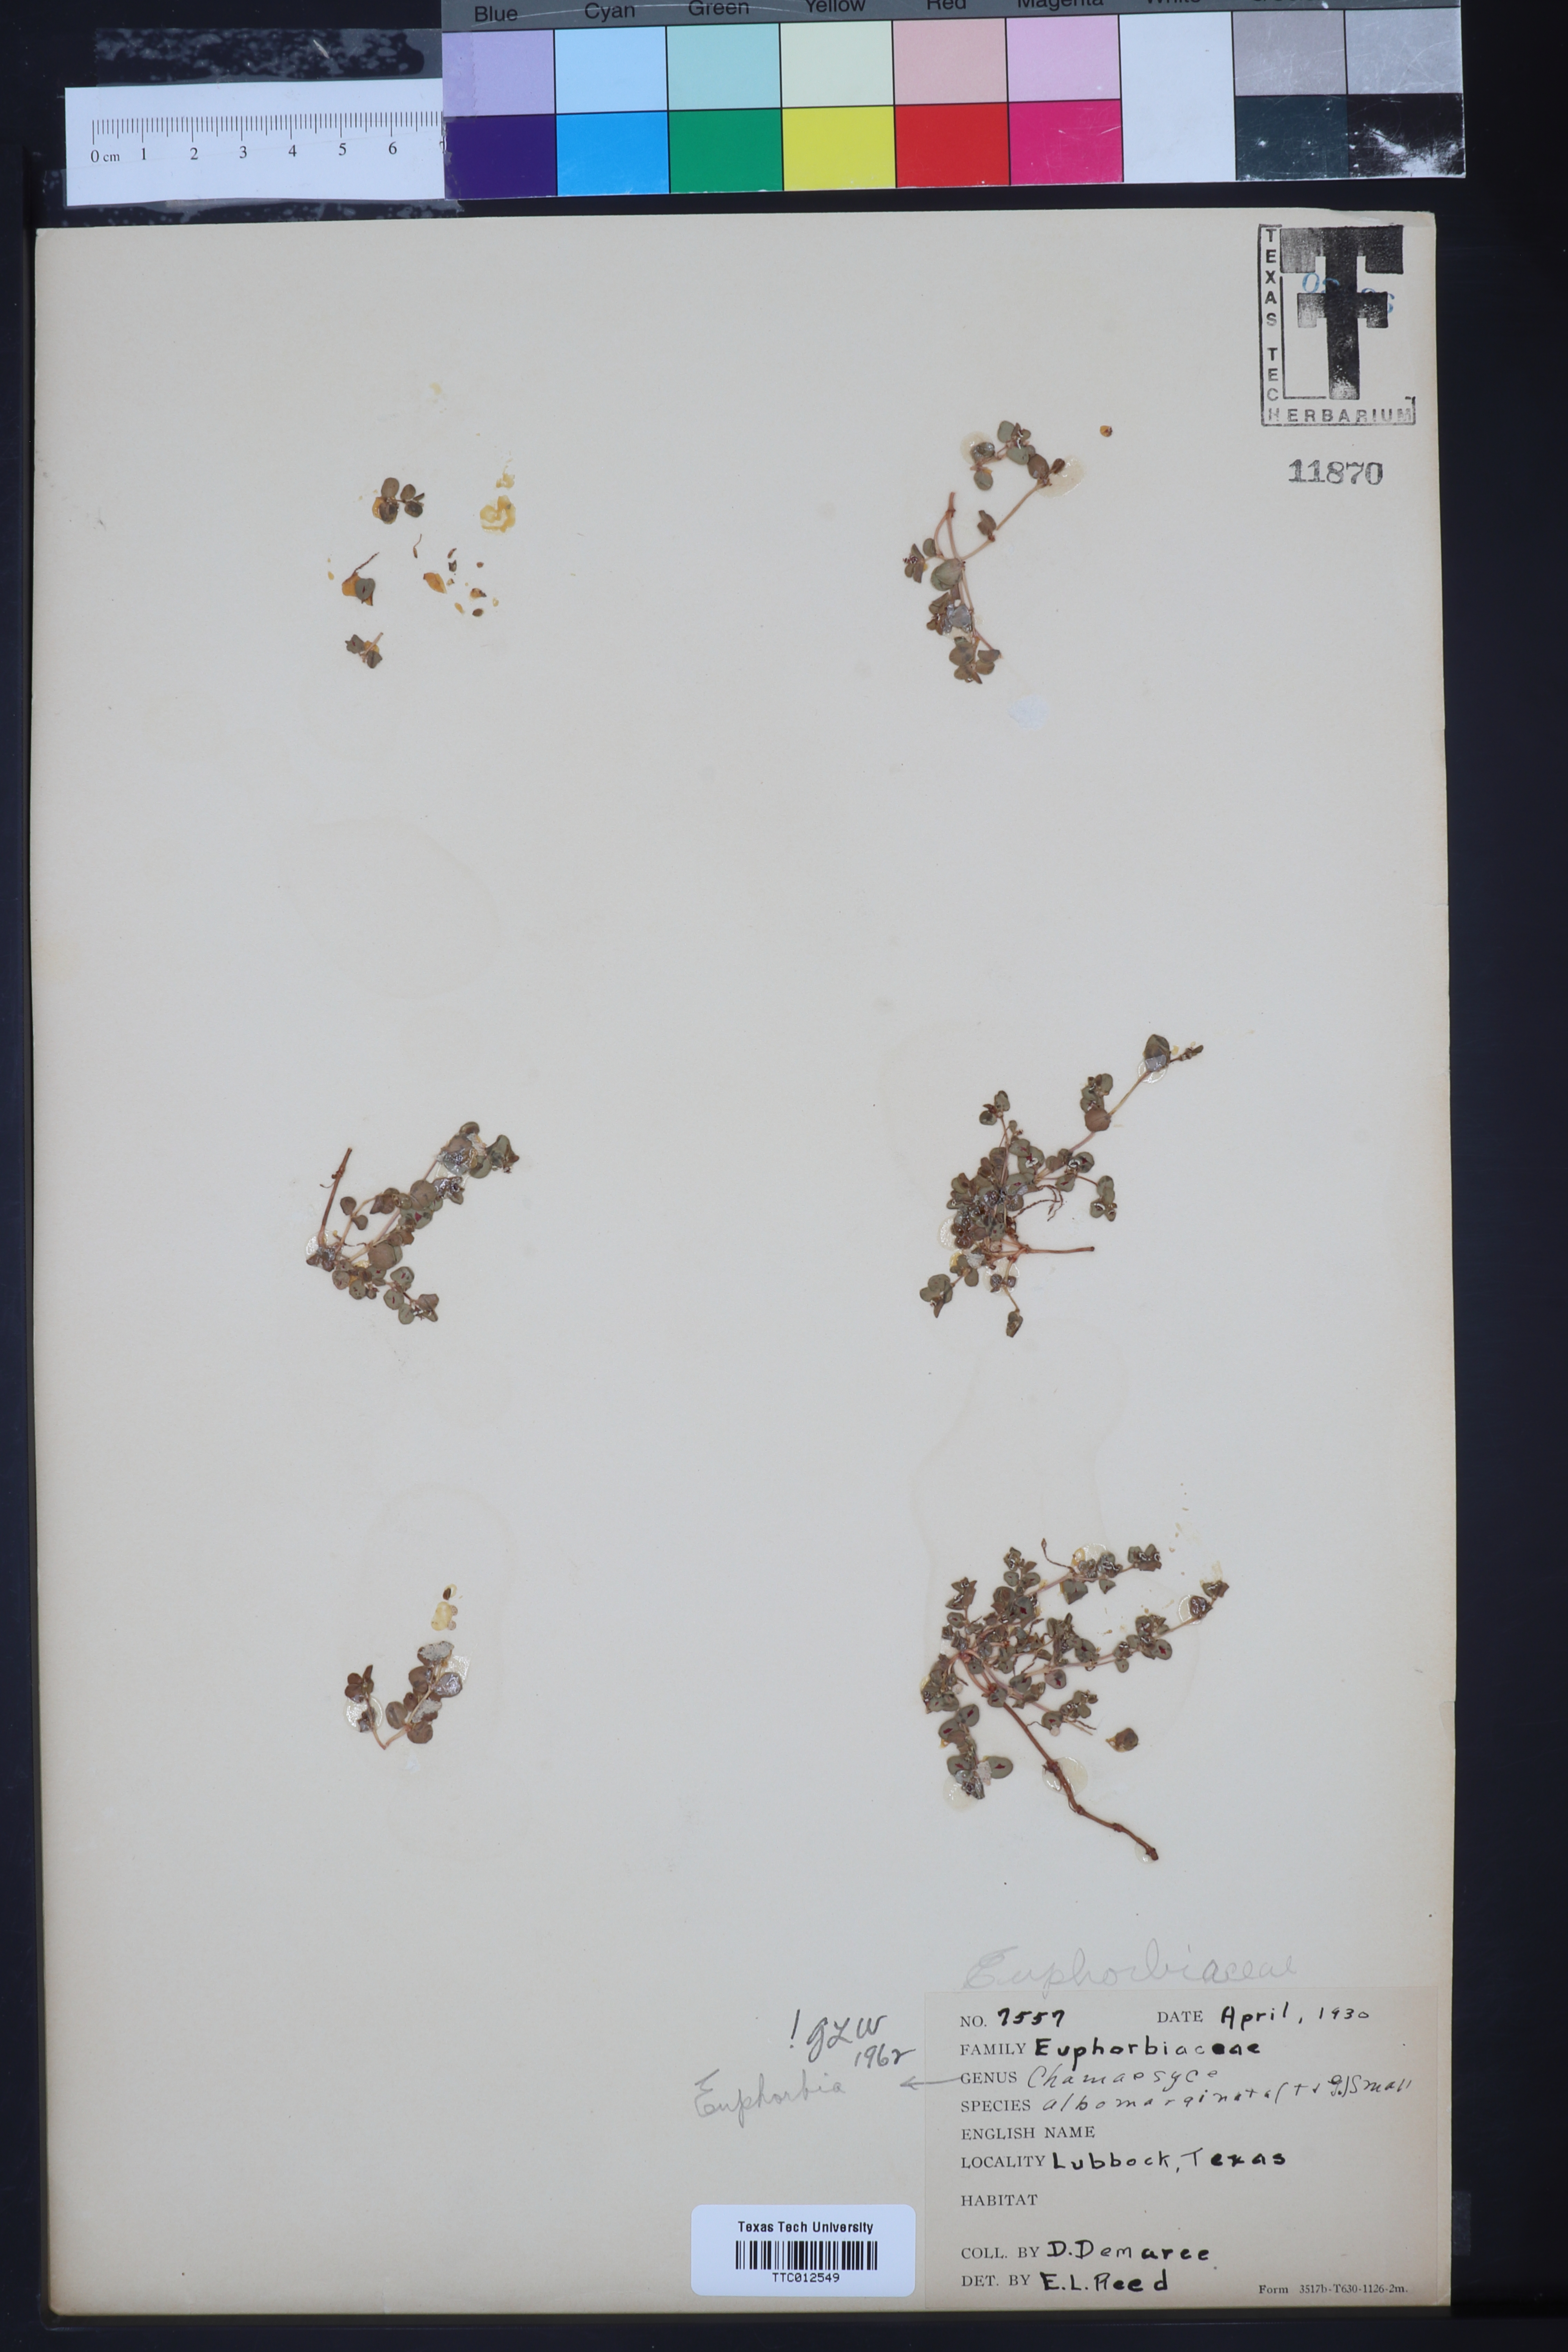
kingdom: Plantae
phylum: Tracheophyta
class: Magnoliopsida
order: Malpighiales
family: Euphorbiaceae
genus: Euphorbia
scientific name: Euphorbia albomarginata
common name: Whitemargin sandmat
